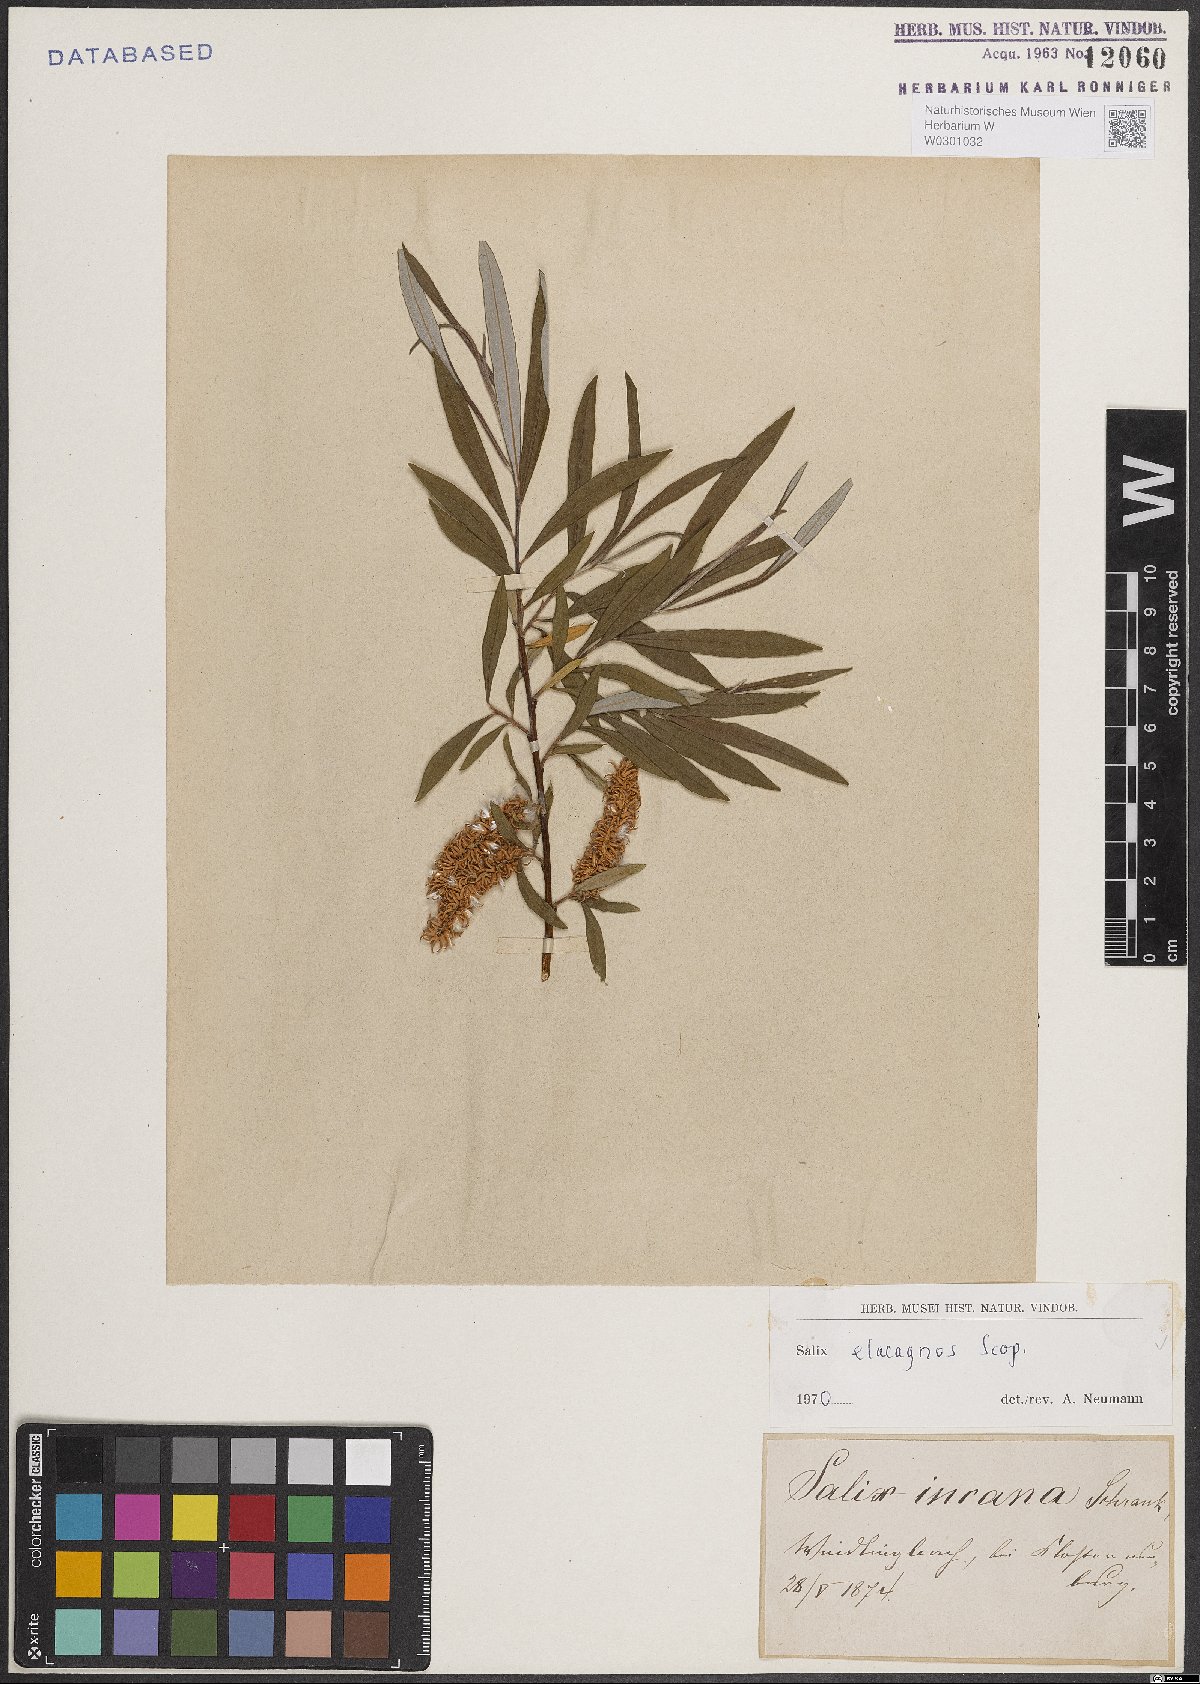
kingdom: Plantae
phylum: Tracheophyta
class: Magnoliopsida
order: Malpighiales
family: Salicaceae
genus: Salix
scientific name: Salix eleagnos
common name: Elaeagnus willow
